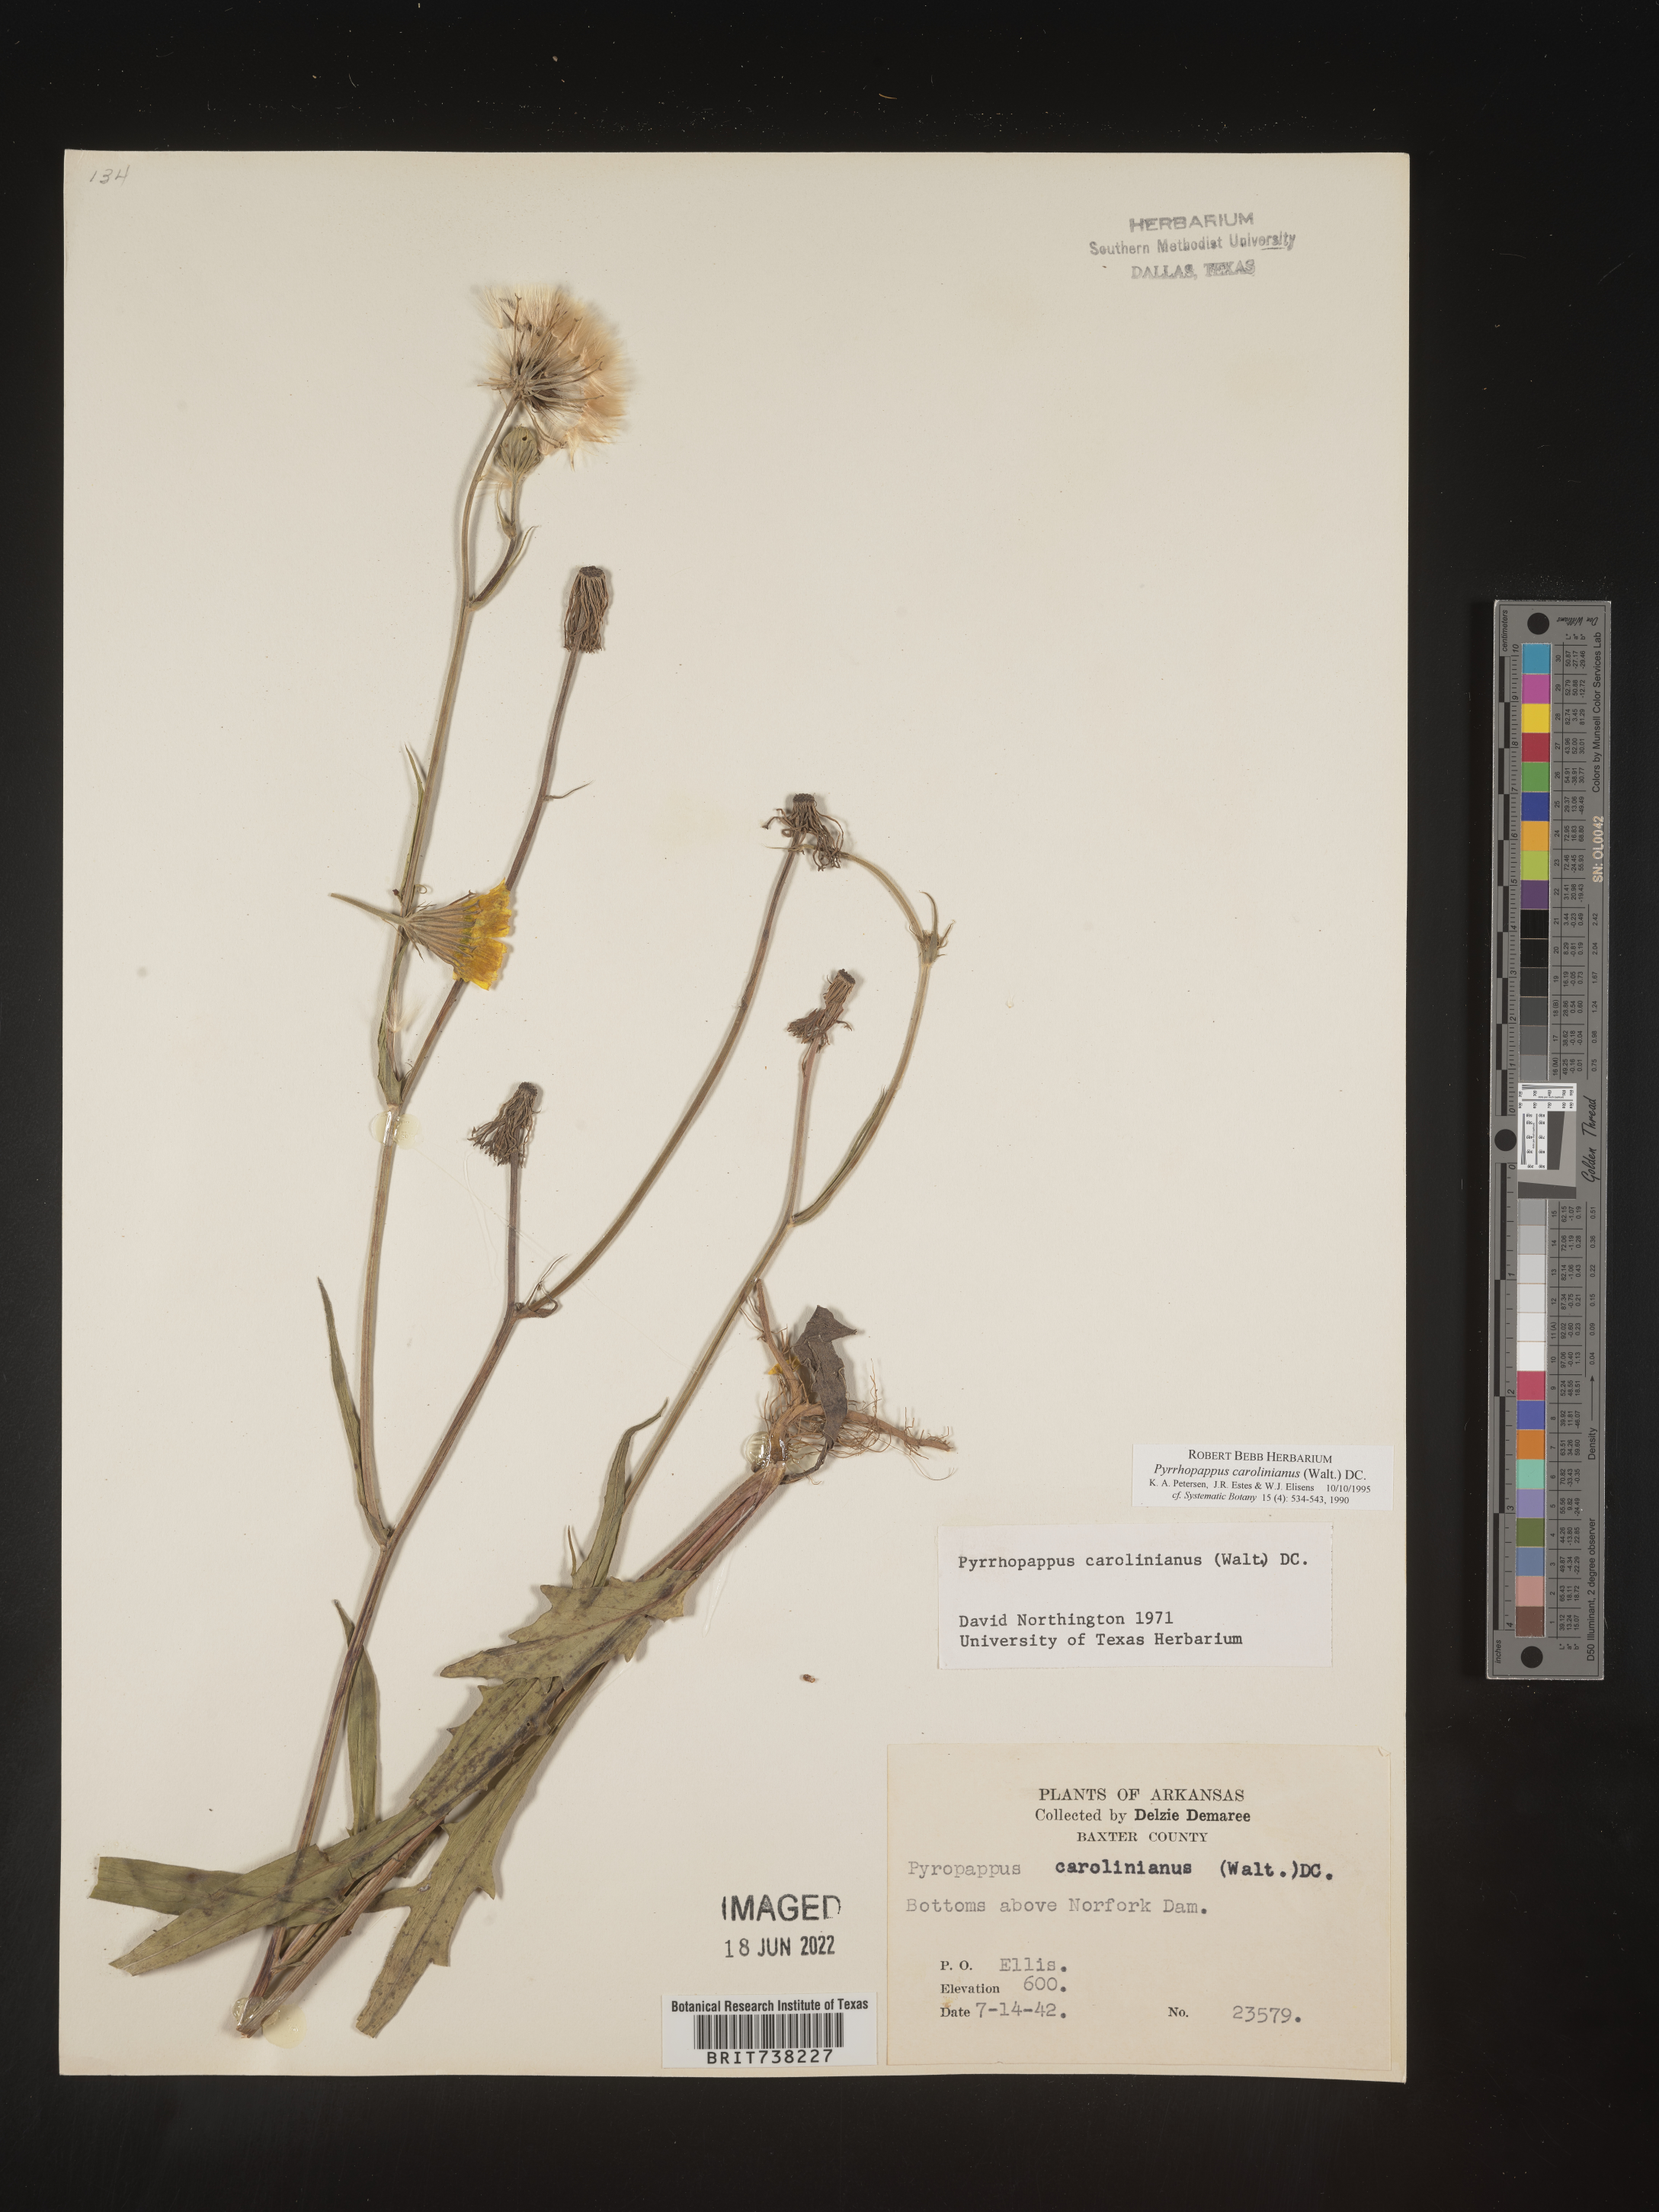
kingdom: Plantae
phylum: Tracheophyta
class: Magnoliopsida
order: Asterales
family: Asteraceae
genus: Pyrrhopappus
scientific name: Pyrrhopappus carolinianus
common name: Carolina desert-chicory
